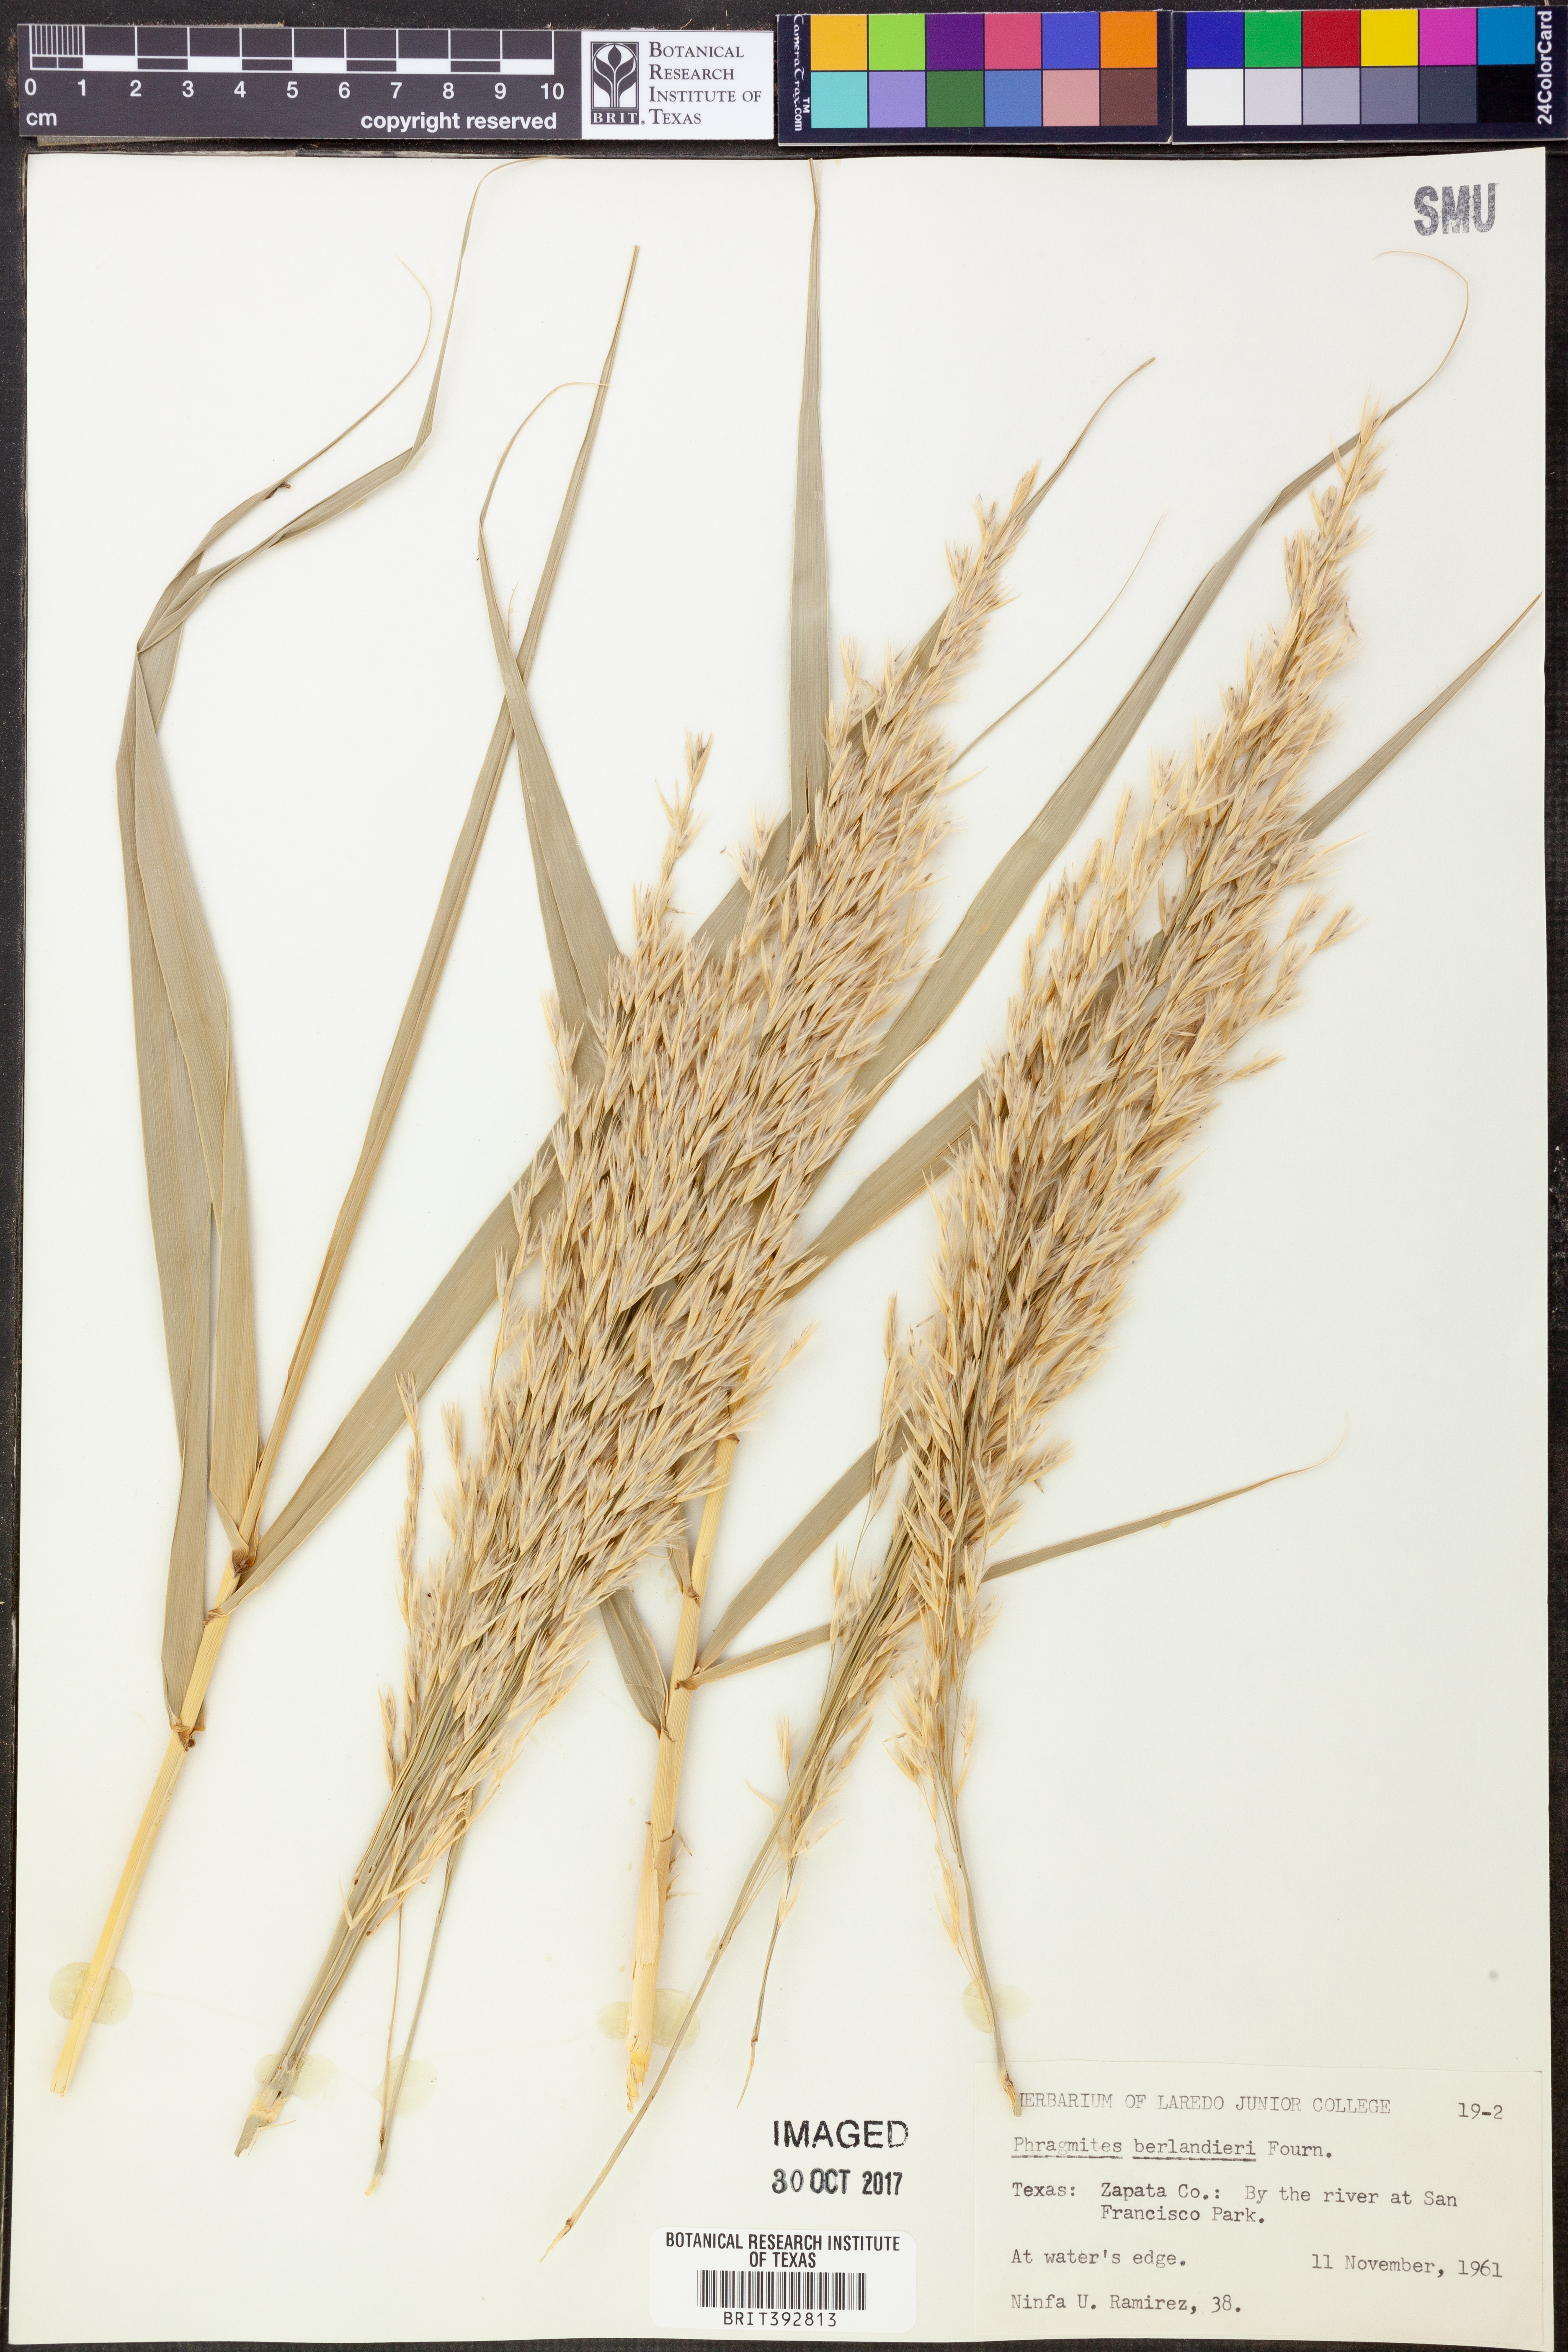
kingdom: Plantae
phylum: Tracheophyta
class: Liliopsida
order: Poales
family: Poaceae
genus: Phragmites
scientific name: Phragmites australis
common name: Common reed
